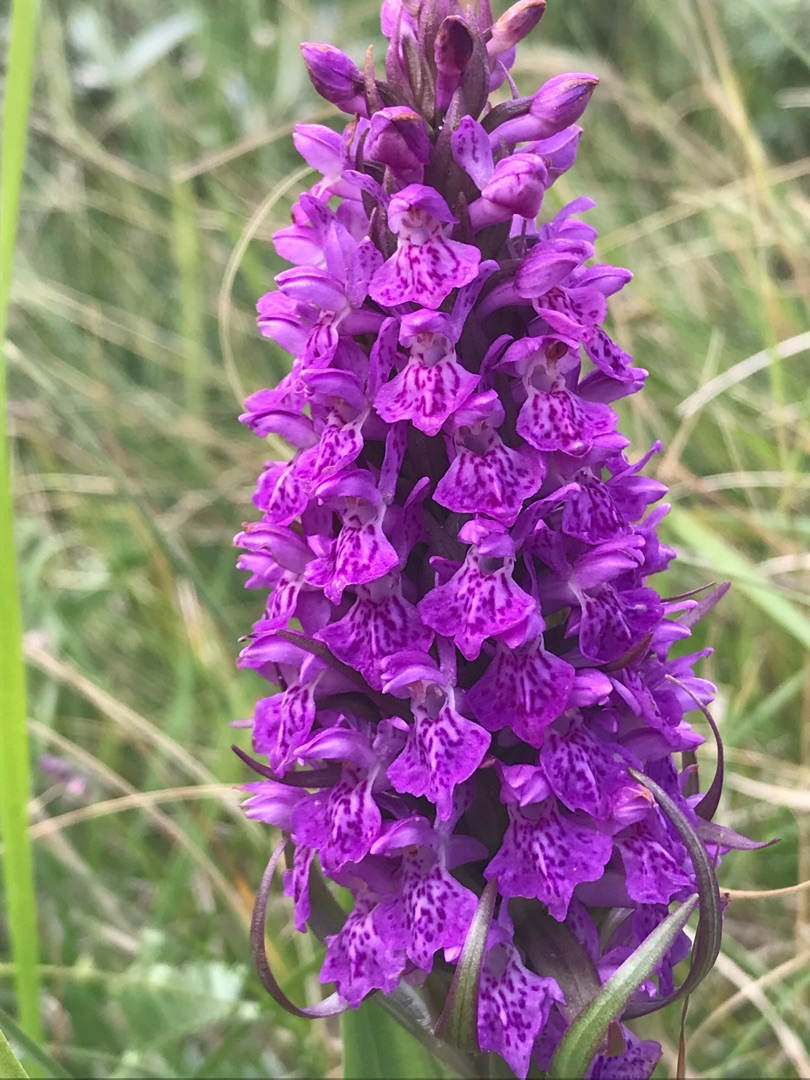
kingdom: Plantae
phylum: Tracheophyta
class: Liliopsida
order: Asparagales
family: Orchidaceae
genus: Dactylorhiza
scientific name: Dactylorhiza majalis
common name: Purpur-gøgeurt
